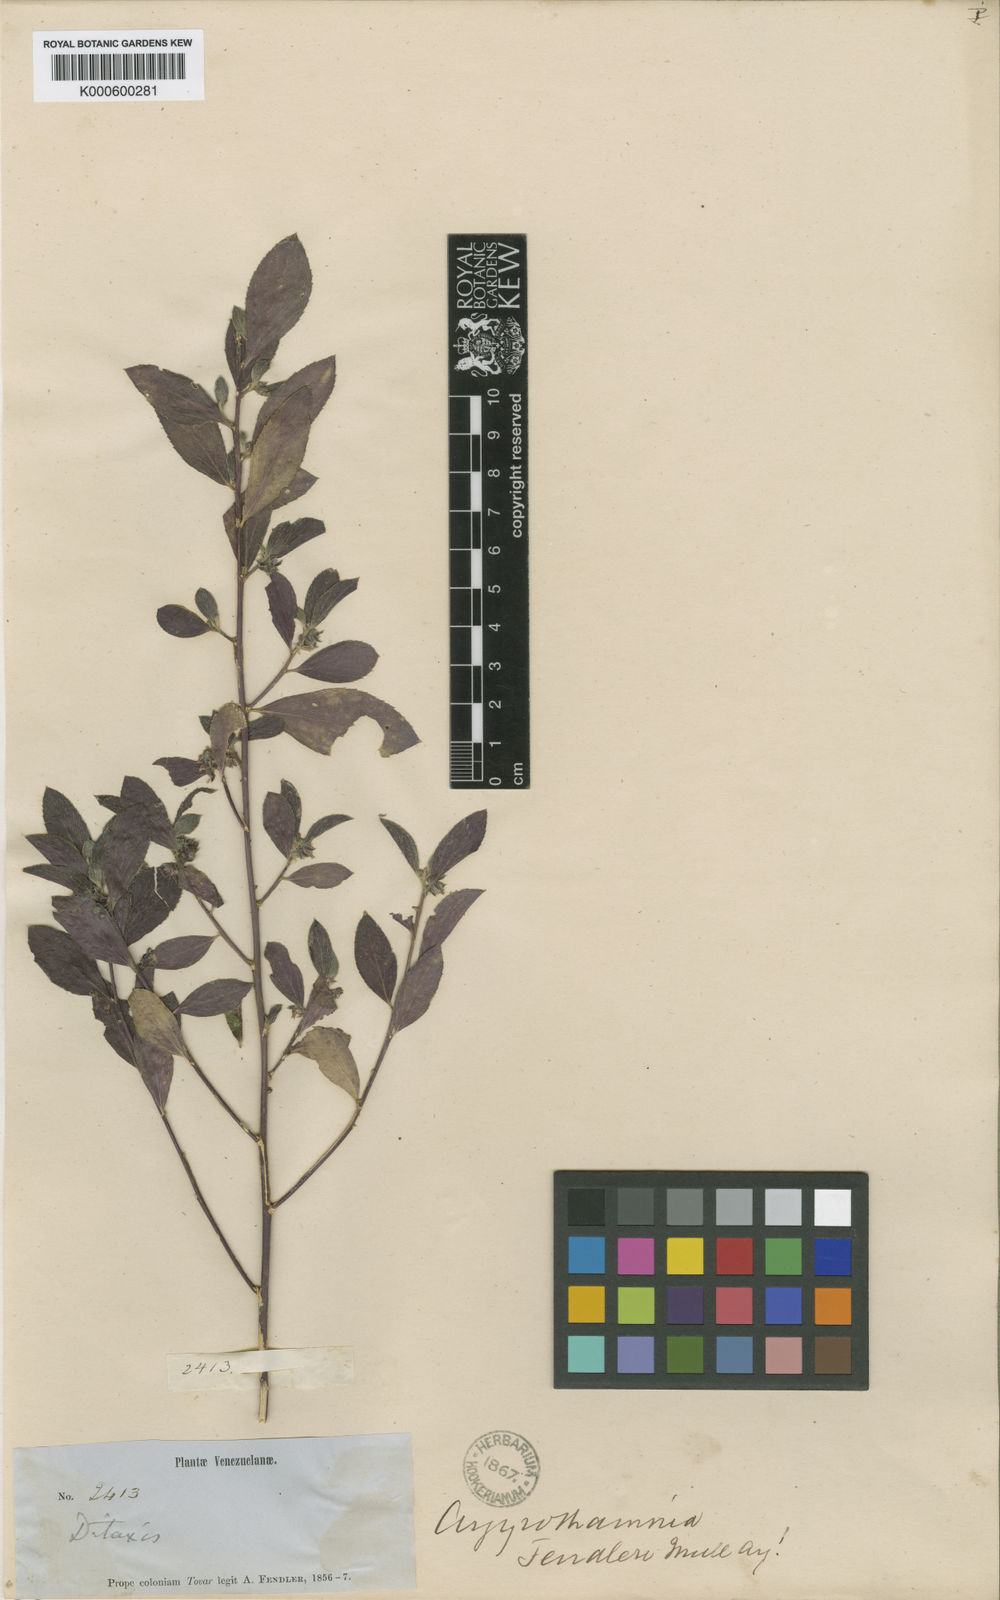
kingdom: Plantae
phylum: Tracheophyta
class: Magnoliopsida
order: Malpighiales
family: Euphorbiaceae
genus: Ditaxis
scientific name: Ditaxis
